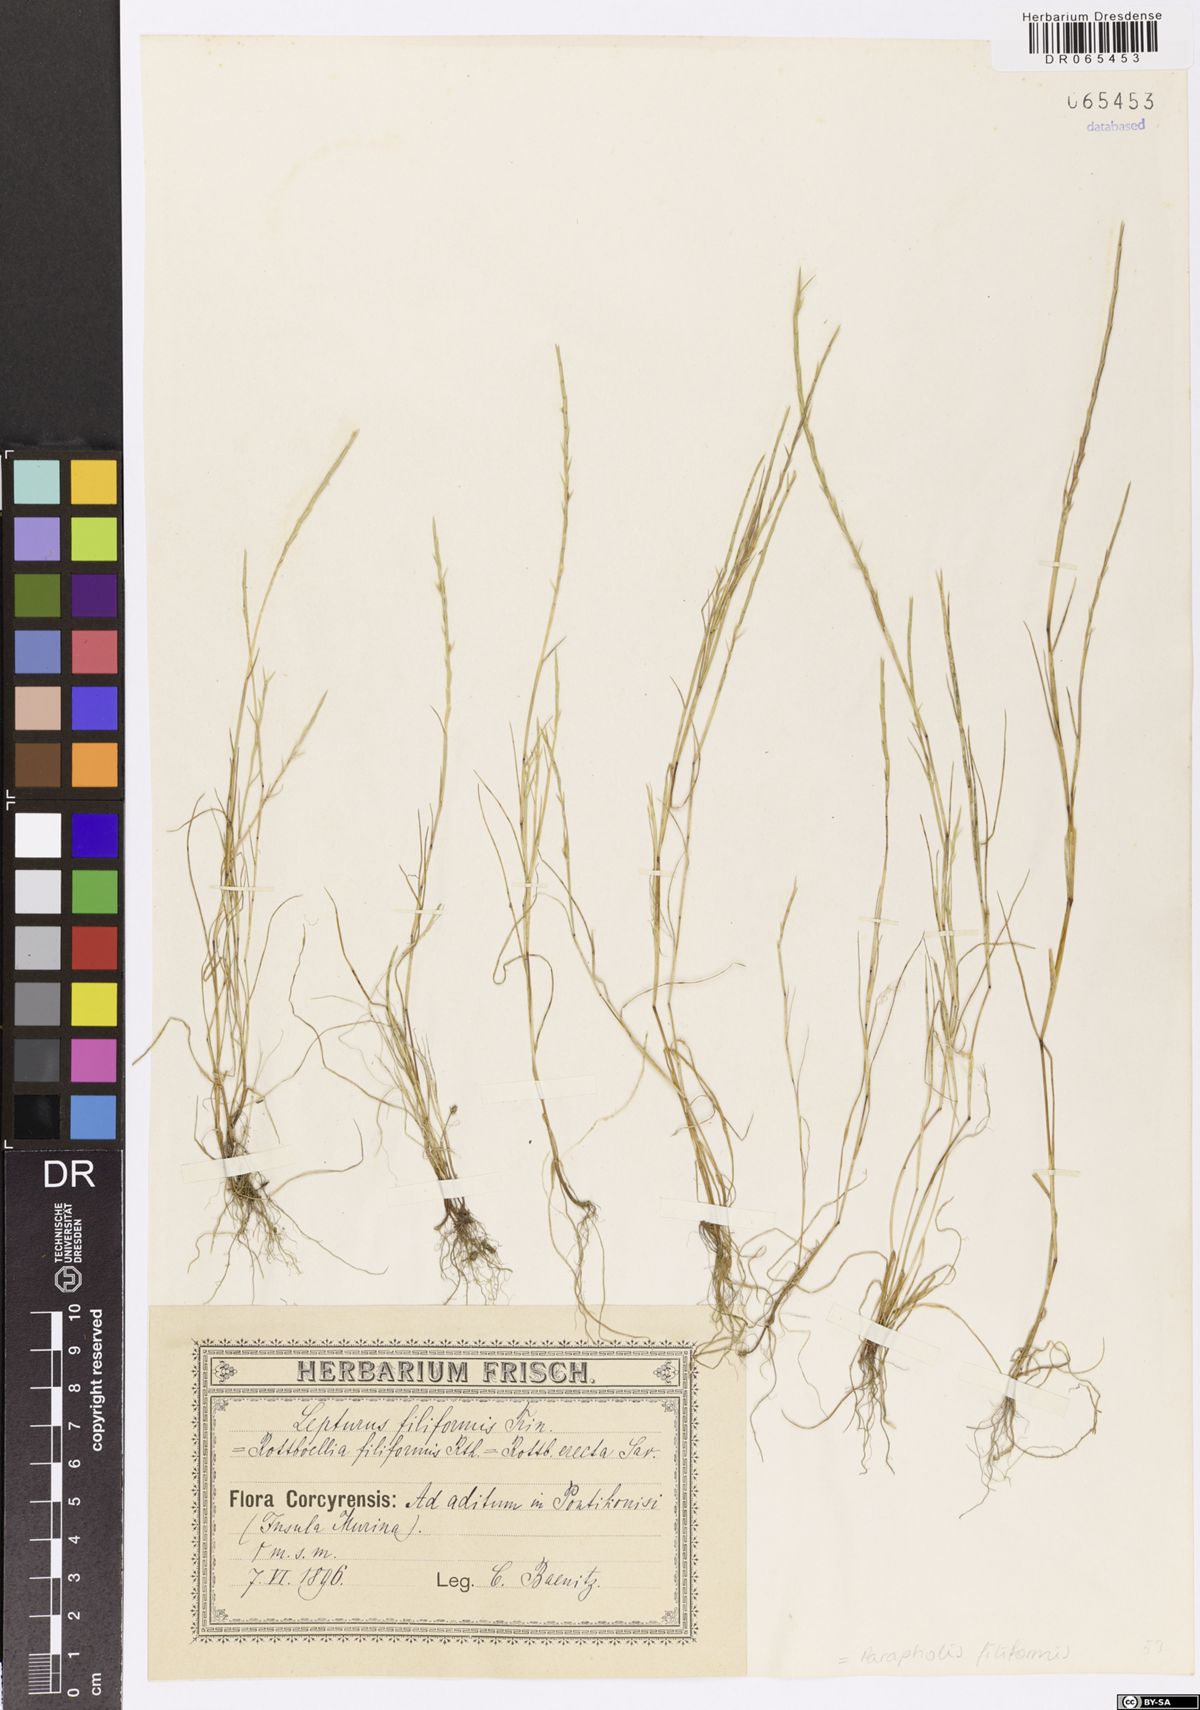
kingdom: Plantae
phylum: Tracheophyta
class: Liliopsida
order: Poales
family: Poaceae
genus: Parapholis
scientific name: Parapholis filiformis
